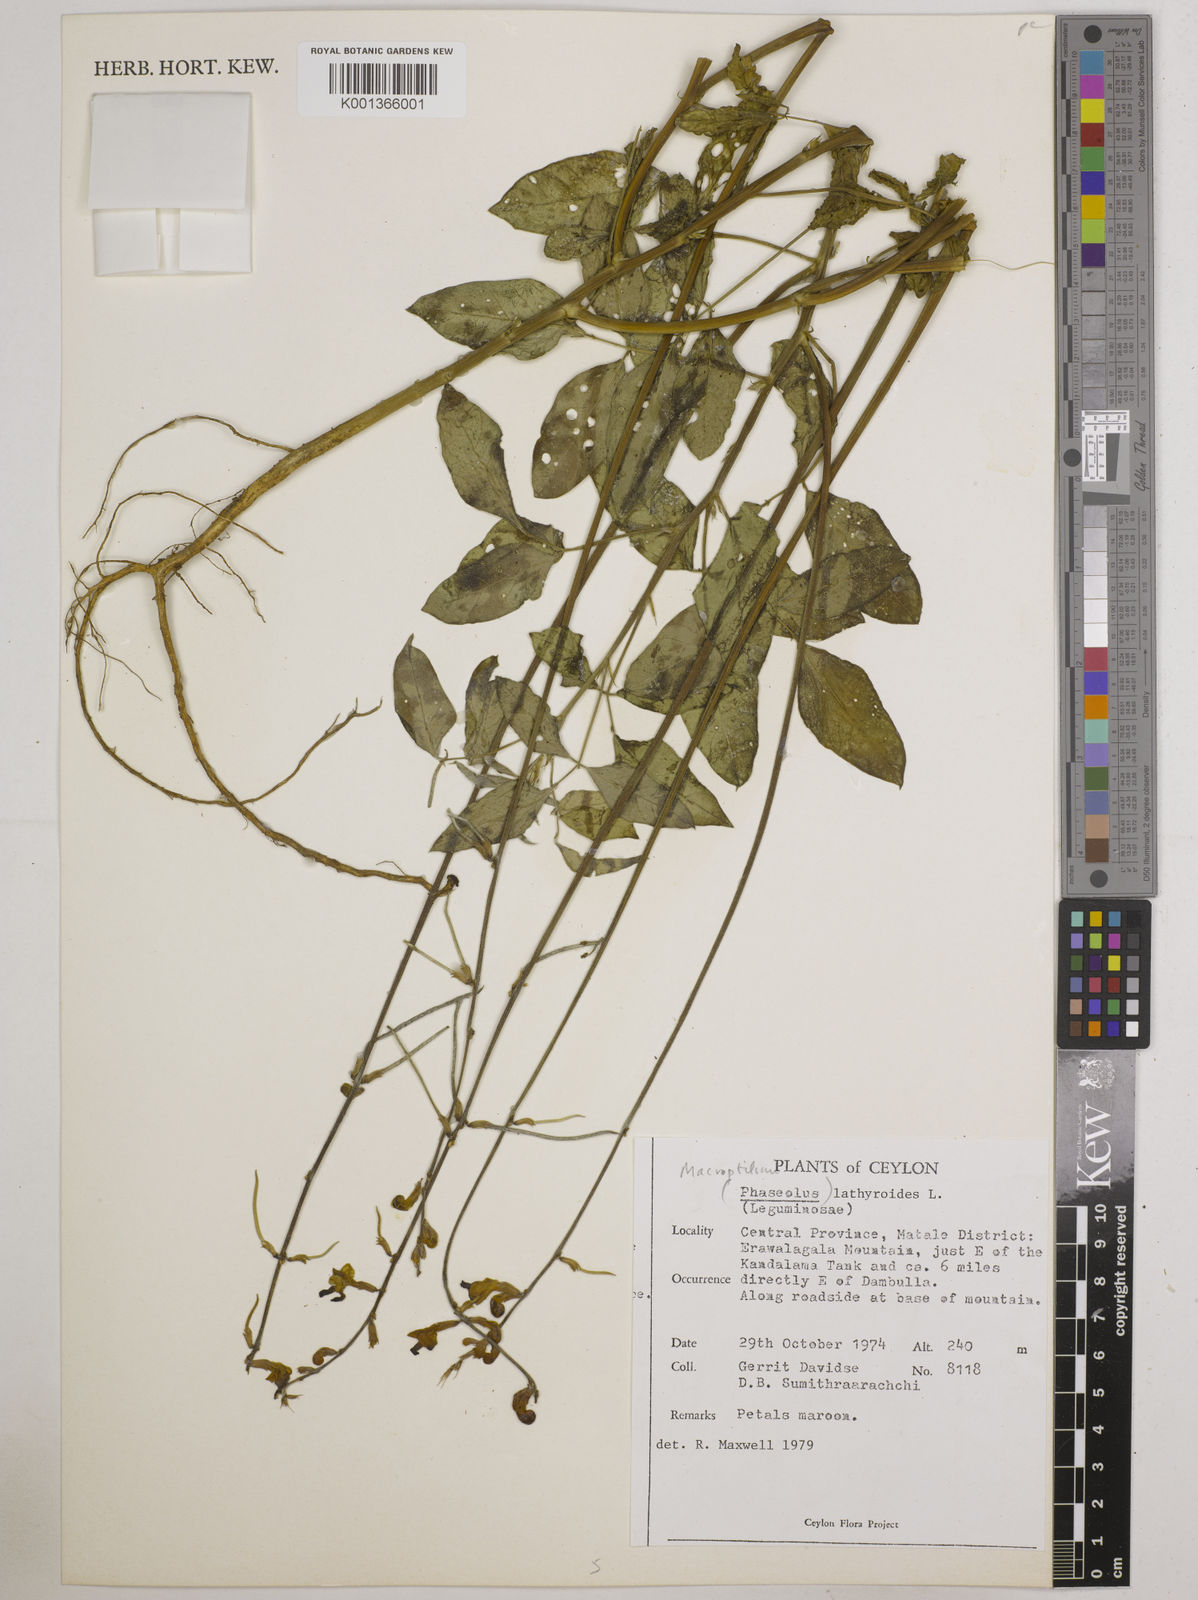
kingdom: Plantae
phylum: Tracheophyta
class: Magnoliopsida
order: Fabales
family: Fabaceae
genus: Macroptilium
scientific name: Macroptilium lathyroides
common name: Wild bushbean
